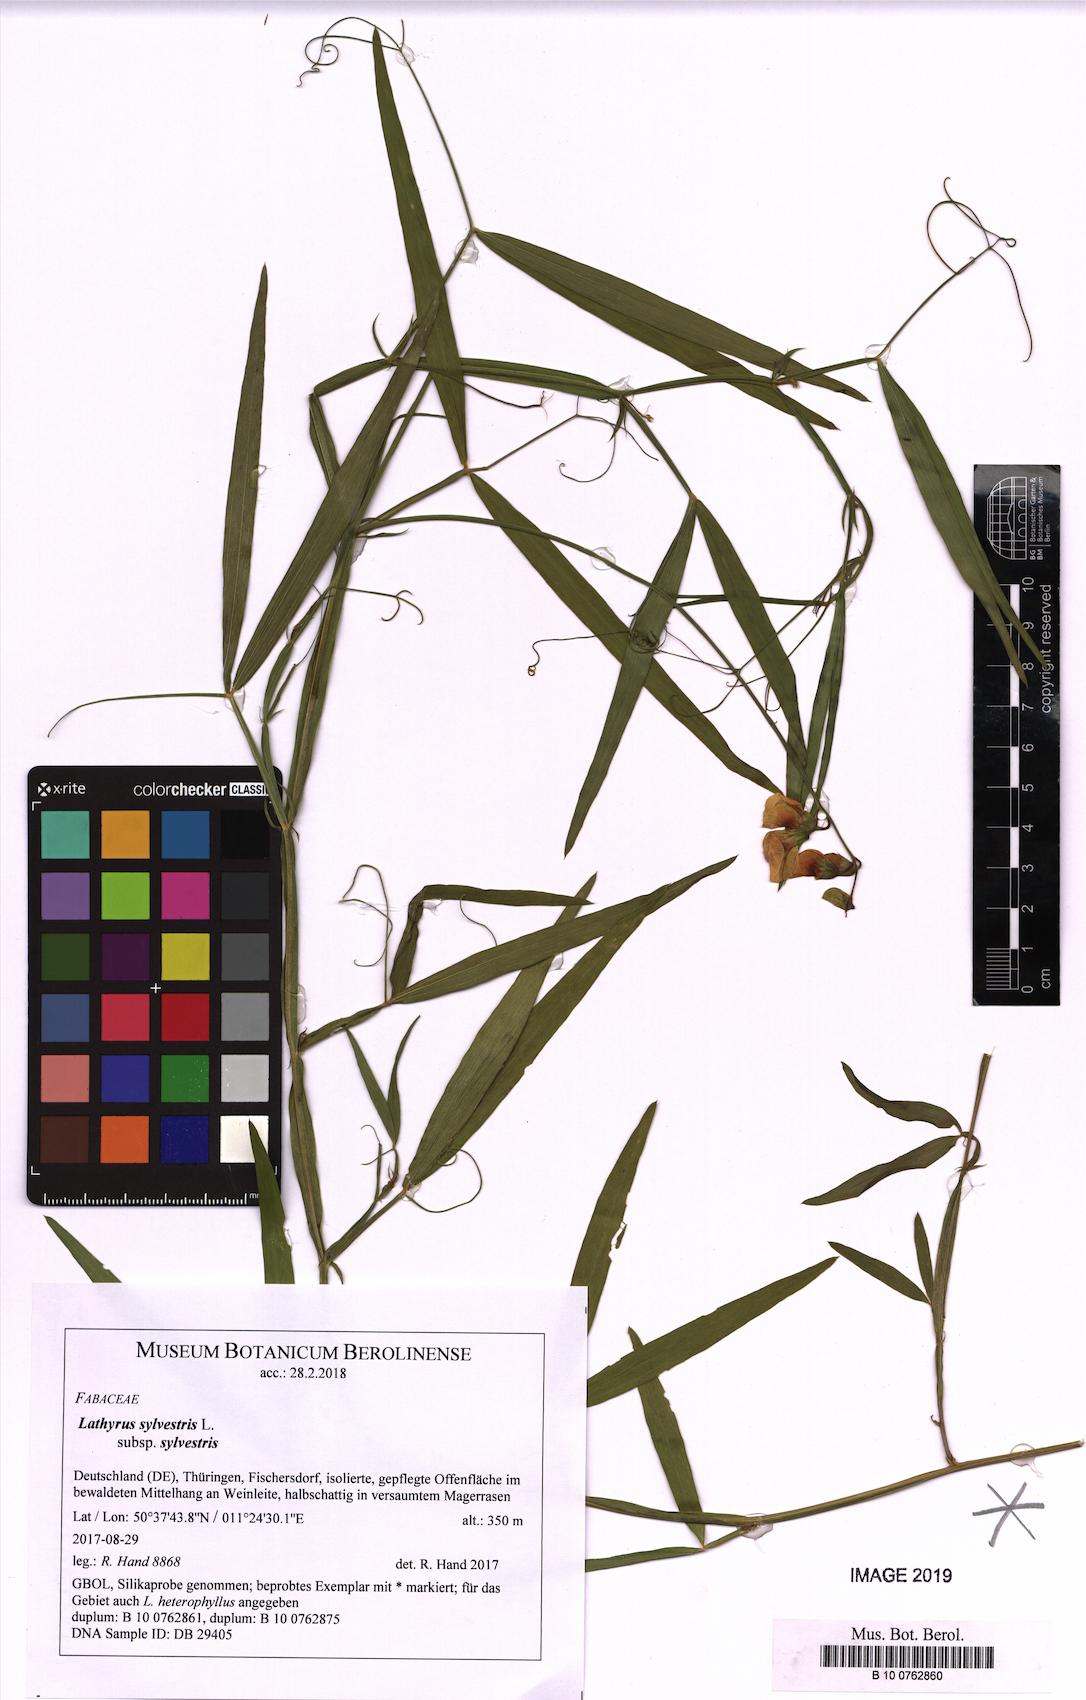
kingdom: Plantae
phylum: Tracheophyta
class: Magnoliopsida
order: Fabales
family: Fabaceae
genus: Lathyrus
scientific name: Lathyrus sylvestris
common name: Flat pea
